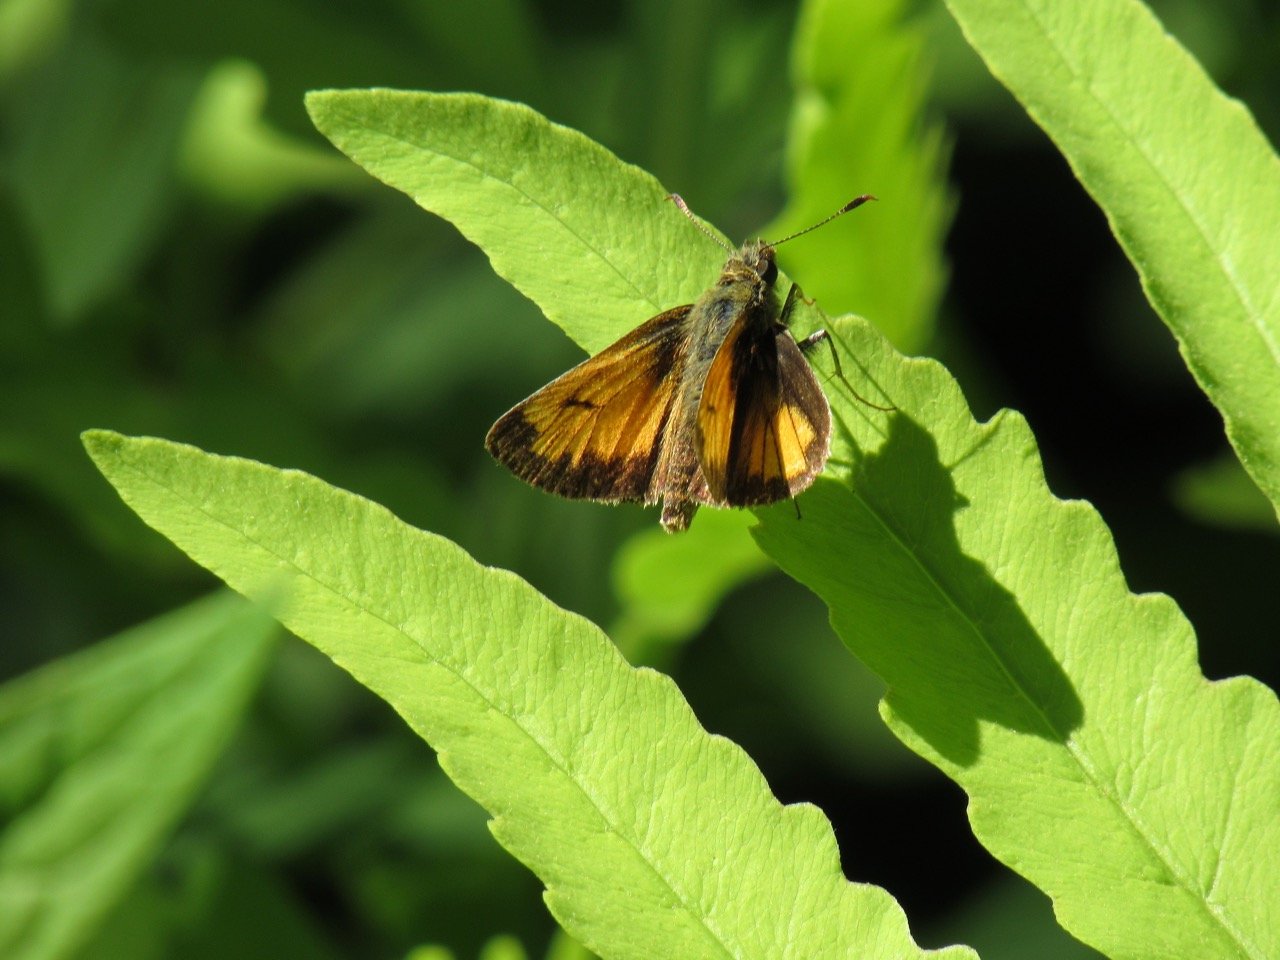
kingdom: Animalia
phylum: Arthropoda
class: Insecta
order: Lepidoptera
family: Hesperiidae
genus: Lon
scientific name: Lon hobomok
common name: Hobomok Skipper
